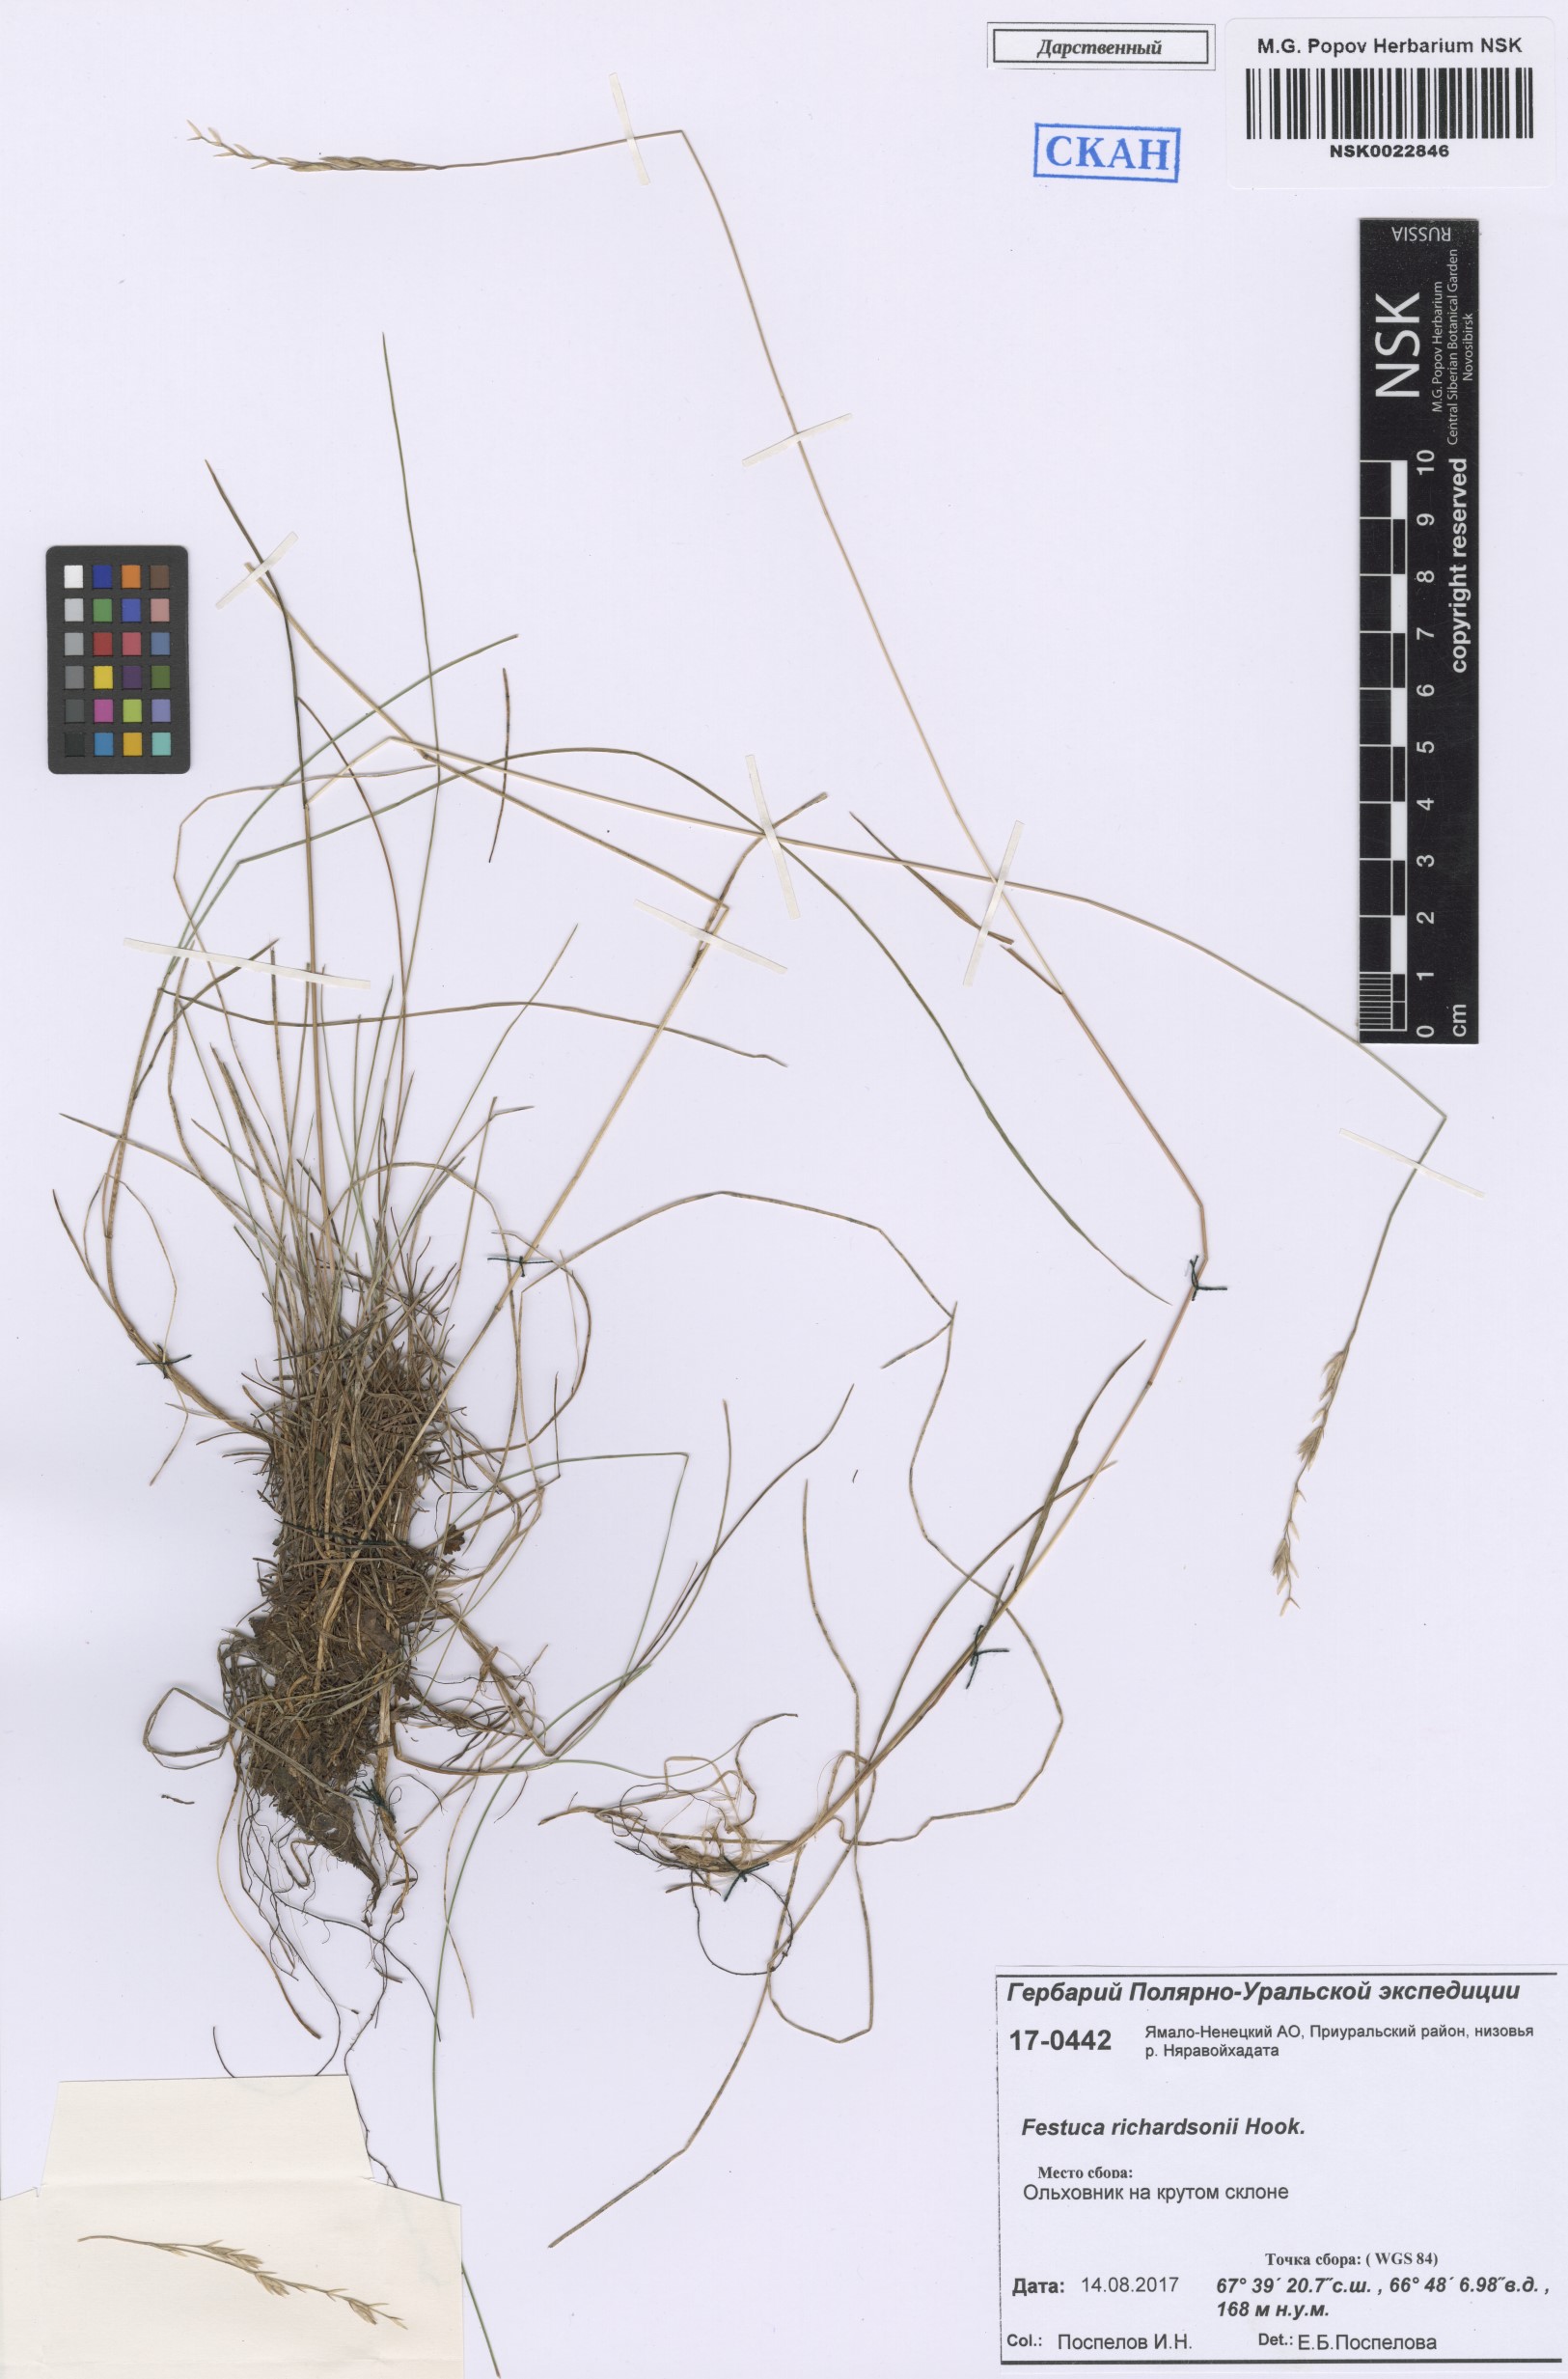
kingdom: Plantae
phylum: Tracheophyta
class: Liliopsida
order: Poales
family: Poaceae
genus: Festuca
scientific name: Festuca richardsonii
